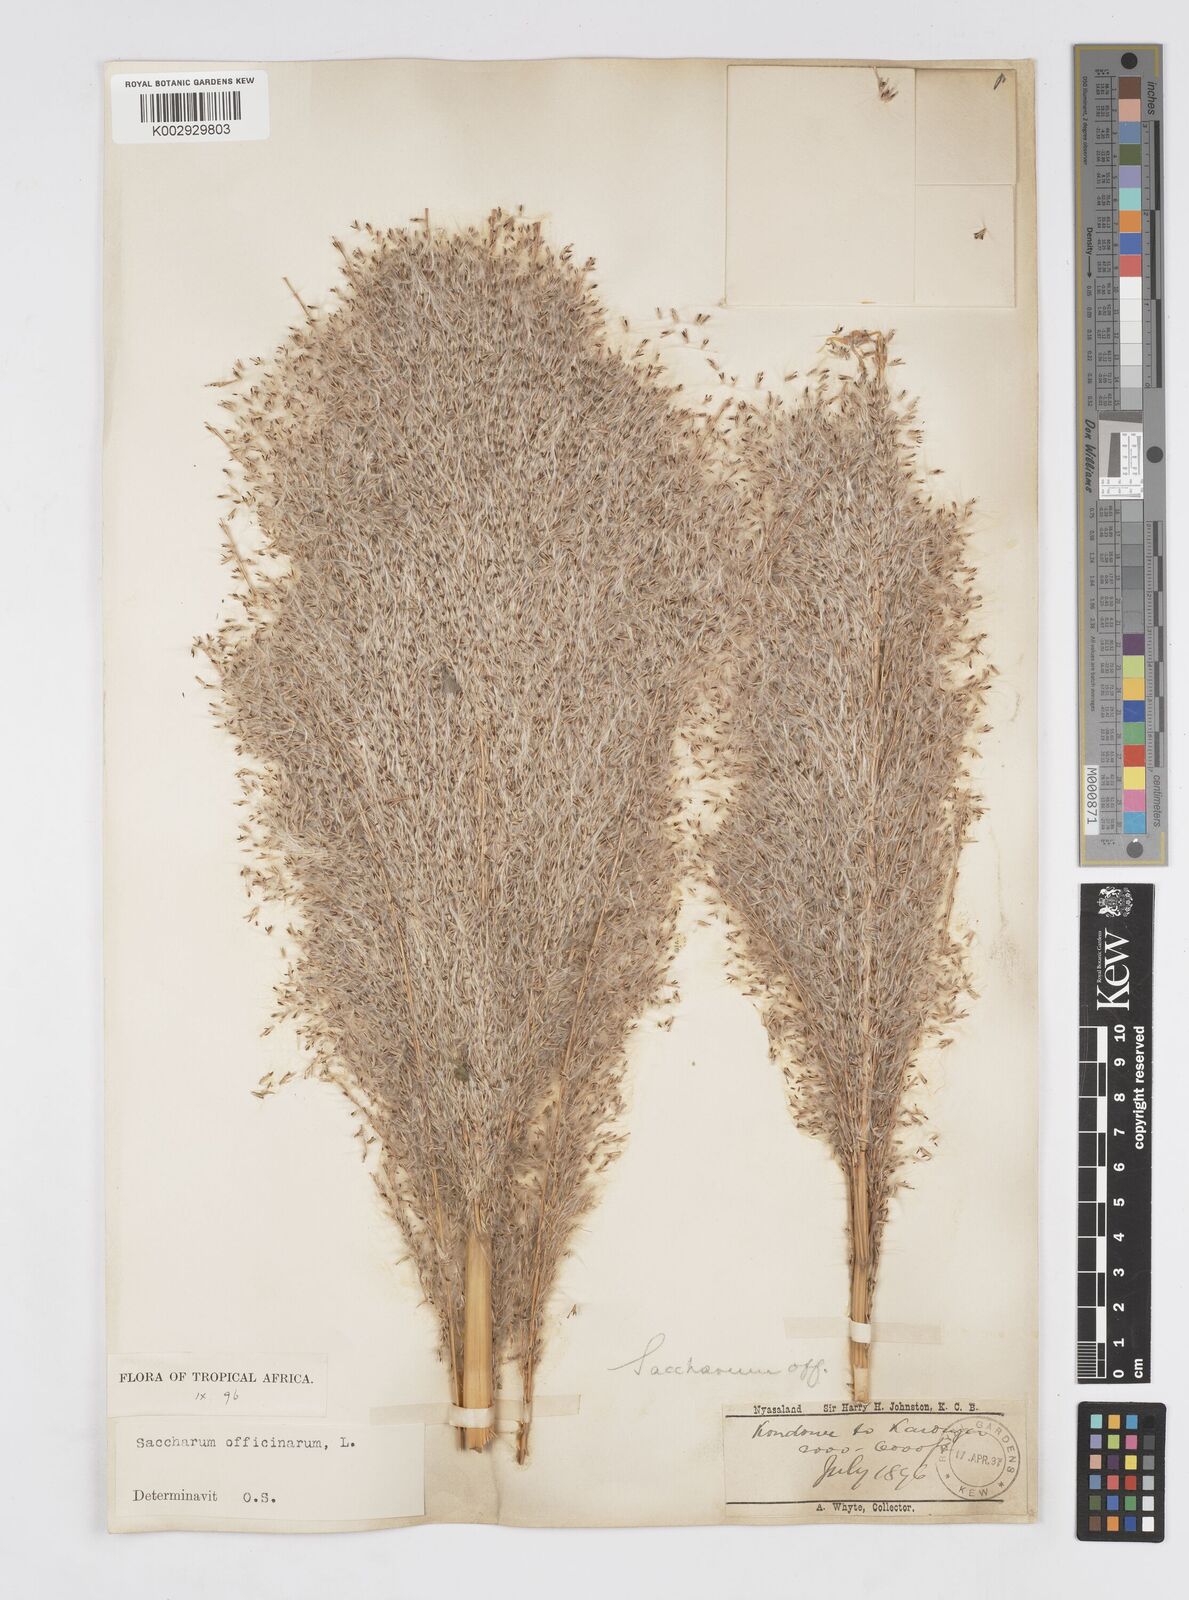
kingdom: Plantae
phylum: Tracheophyta
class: Liliopsida
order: Poales
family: Poaceae
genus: Saccharum
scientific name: Saccharum officinarum
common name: Sugarcane
